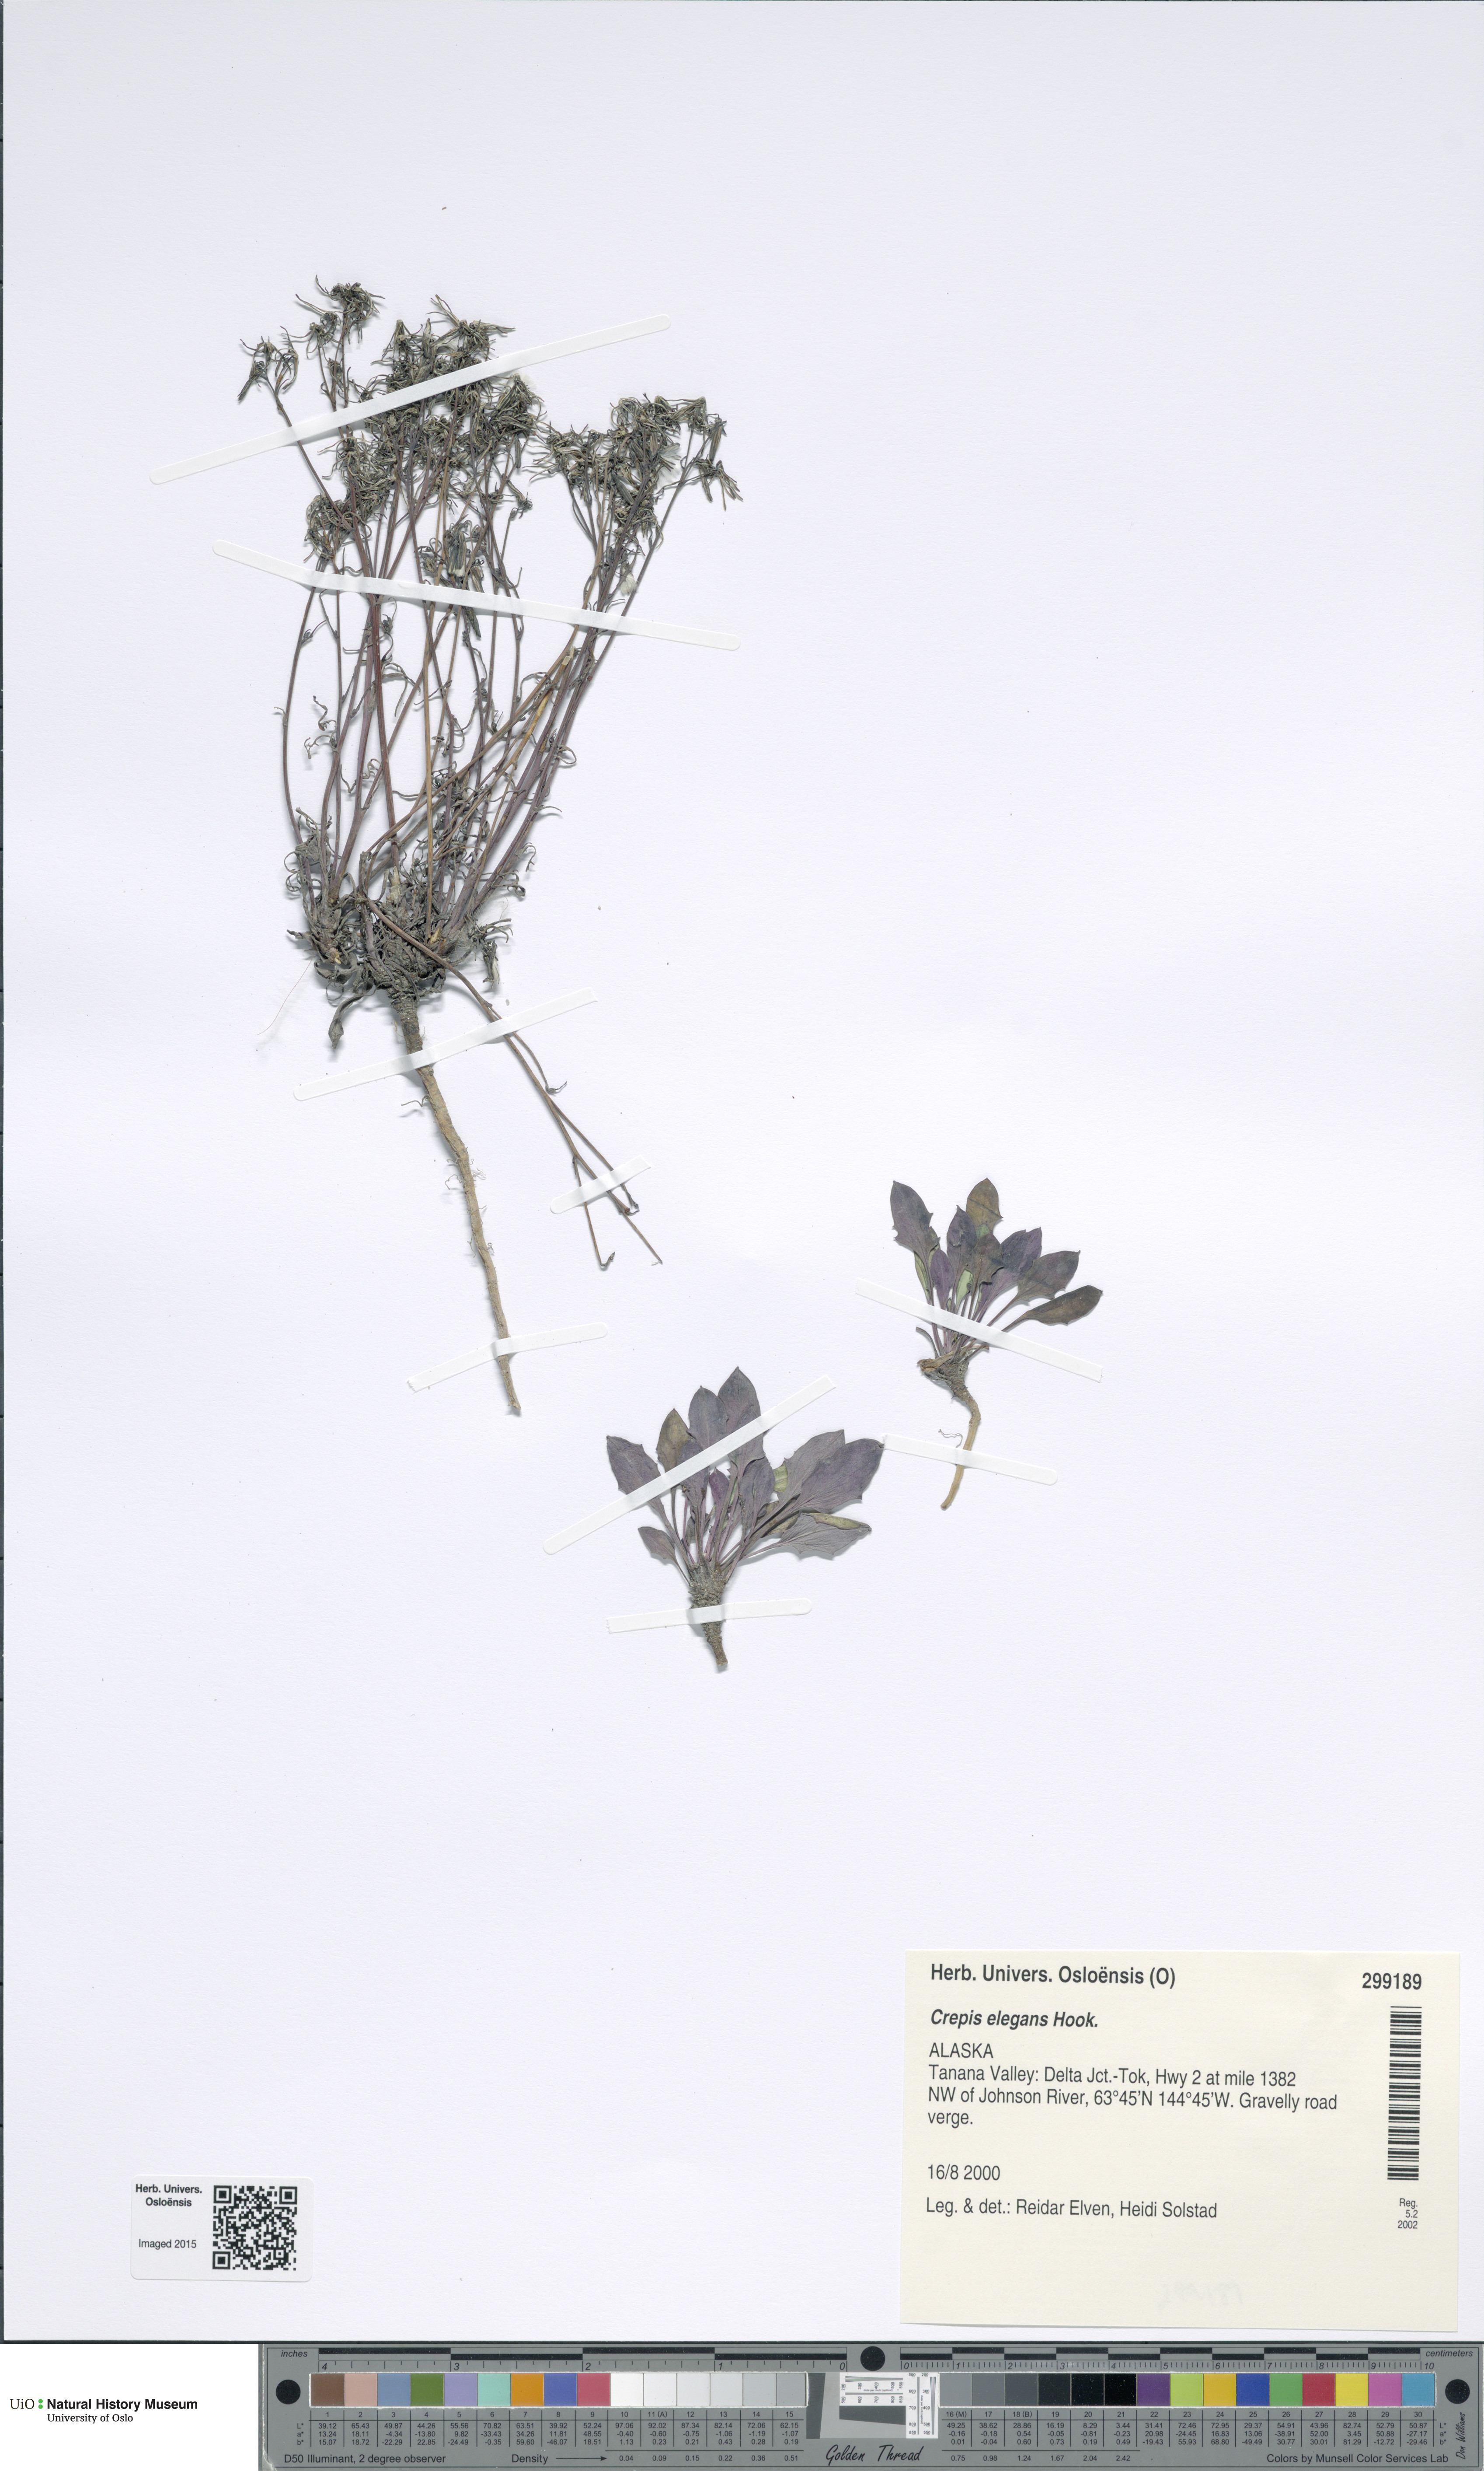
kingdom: Plantae
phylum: Tracheophyta
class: Magnoliopsida
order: Asterales
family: Asteraceae
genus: Askellia
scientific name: Askellia elegans
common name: Elegant hawksbeard
